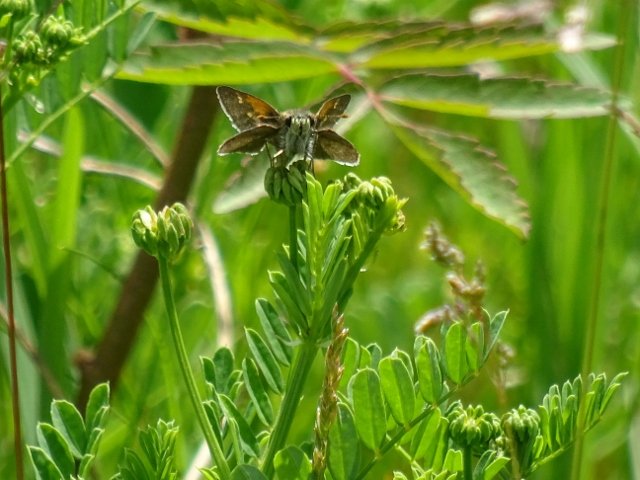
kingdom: Animalia
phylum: Arthropoda
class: Insecta
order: Lepidoptera
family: Hesperiidae
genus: Polites
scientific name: Polites themistocles
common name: Tawny-edged Skipper
